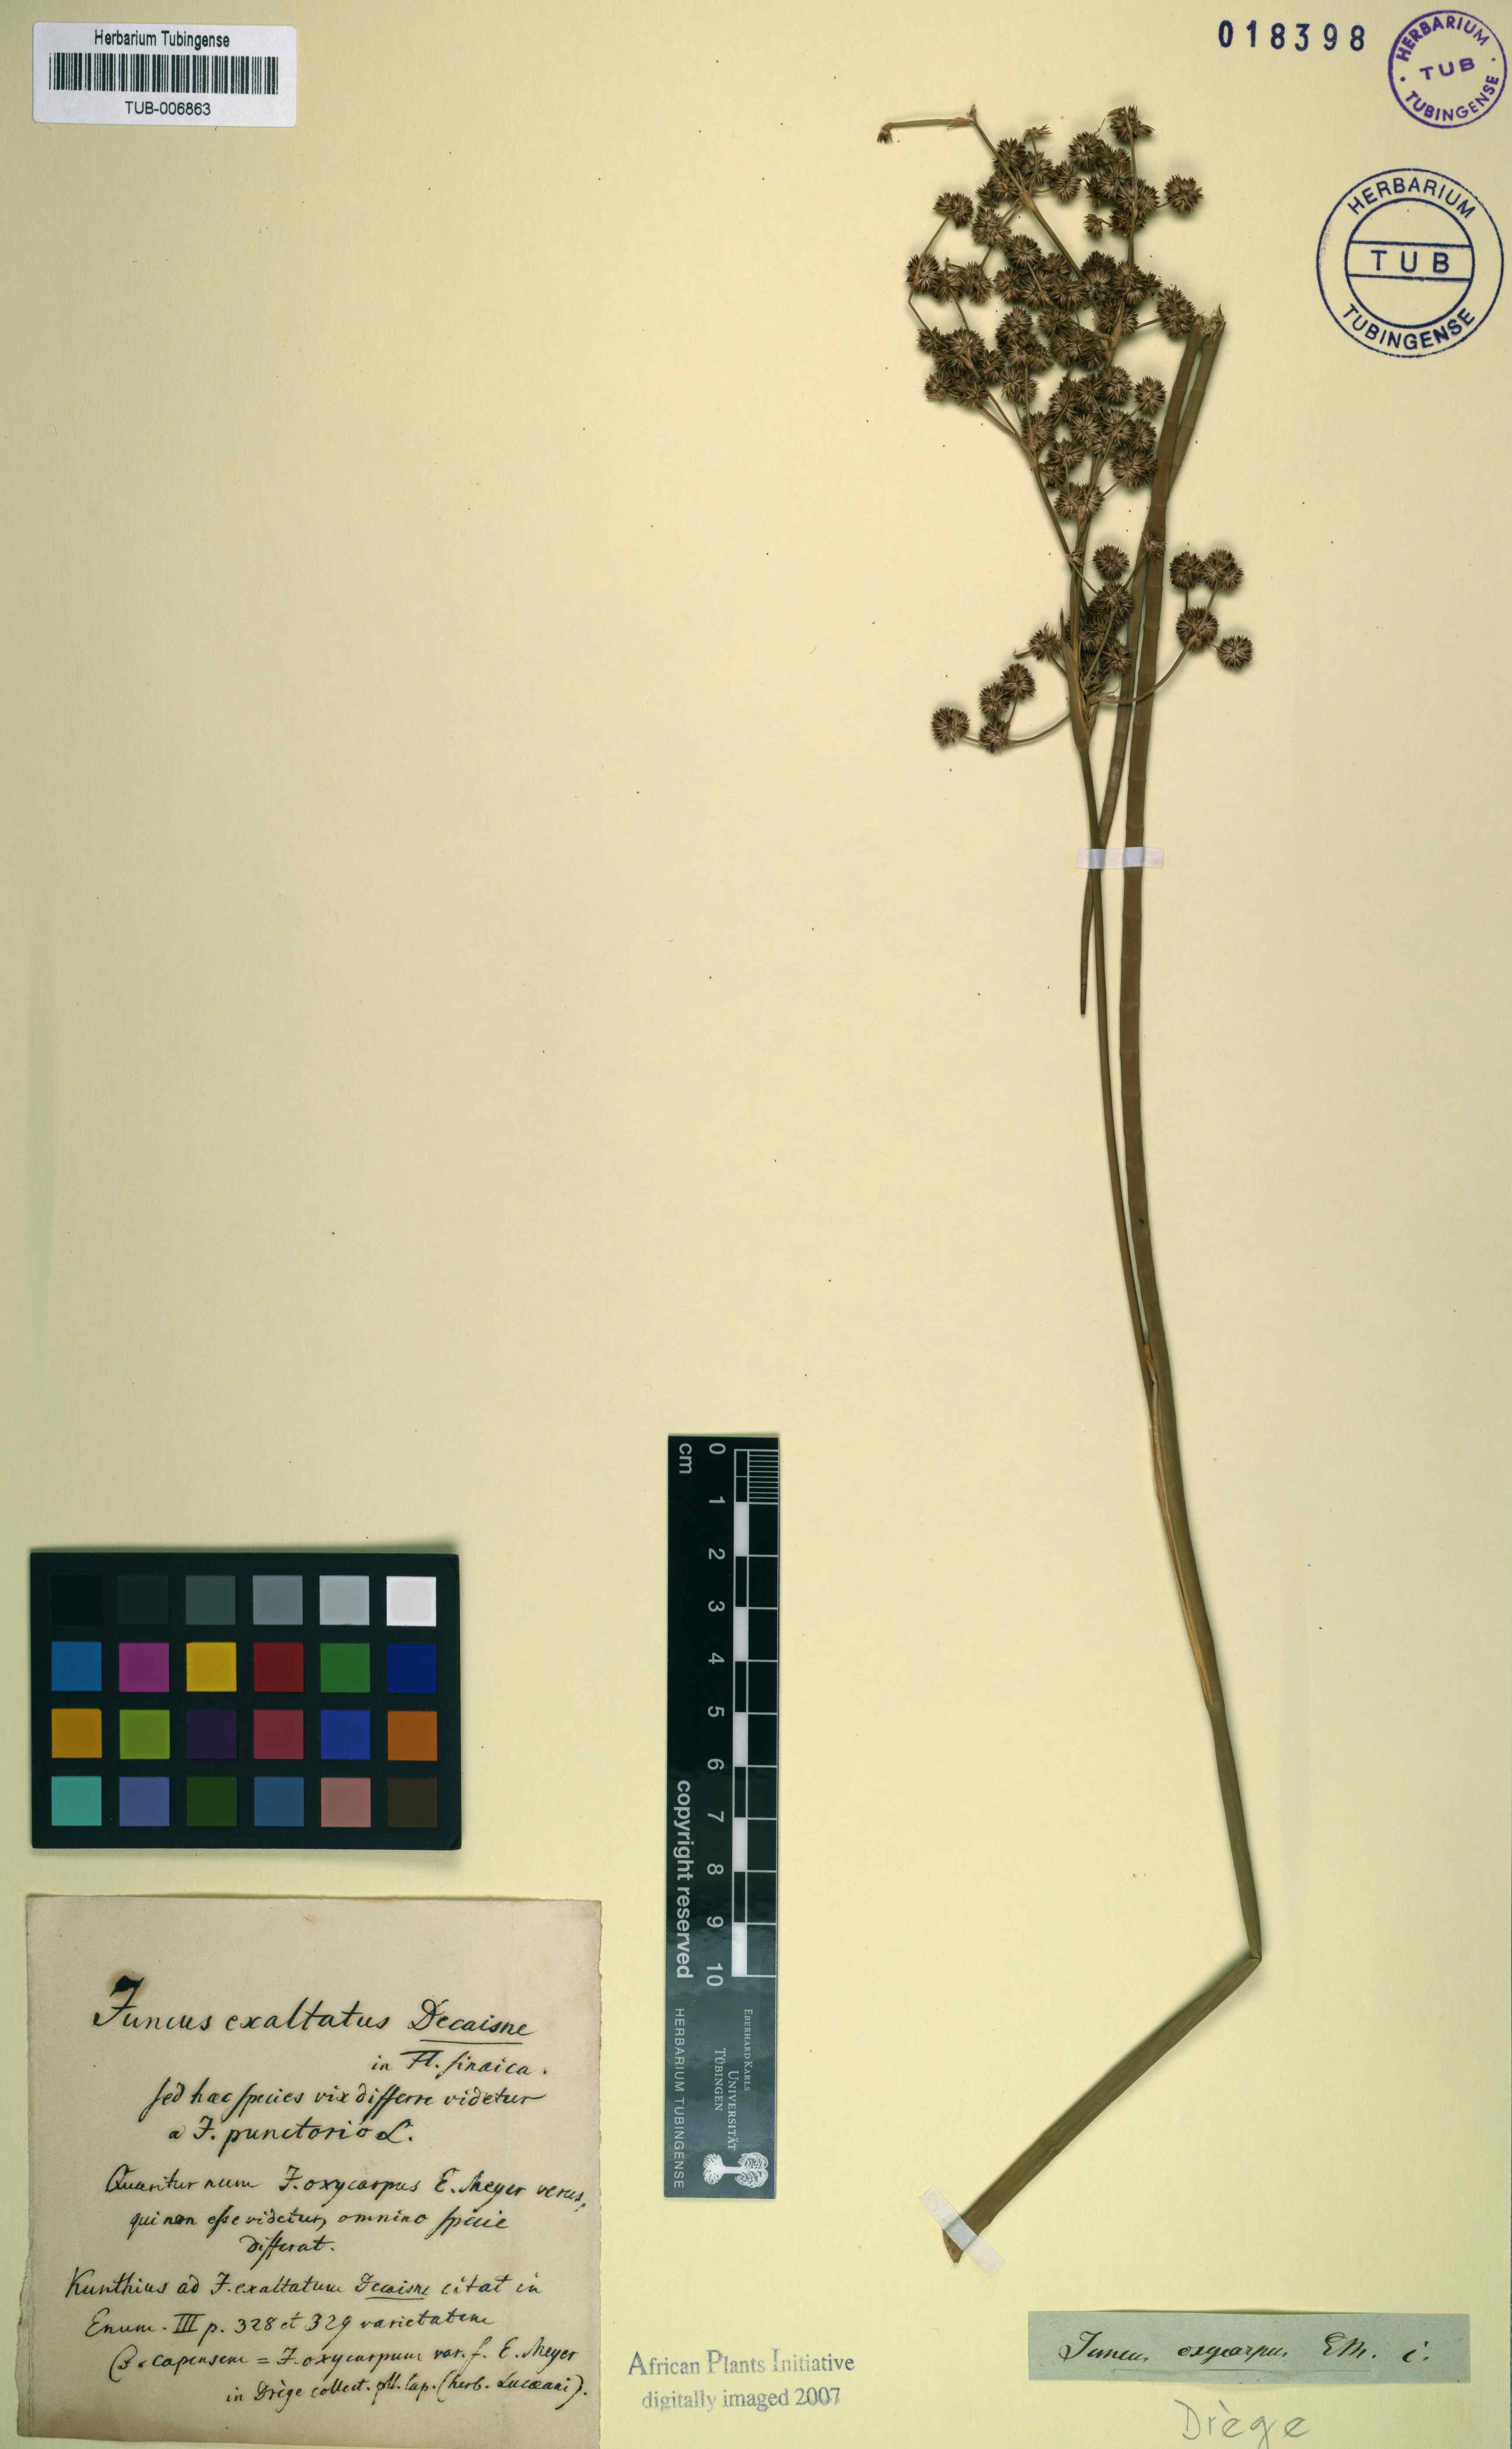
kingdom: Plantae
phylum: Tracheophyta
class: Liliopsida
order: Poales
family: Juncaceae
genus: Juncus
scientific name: Juncus punctorius
